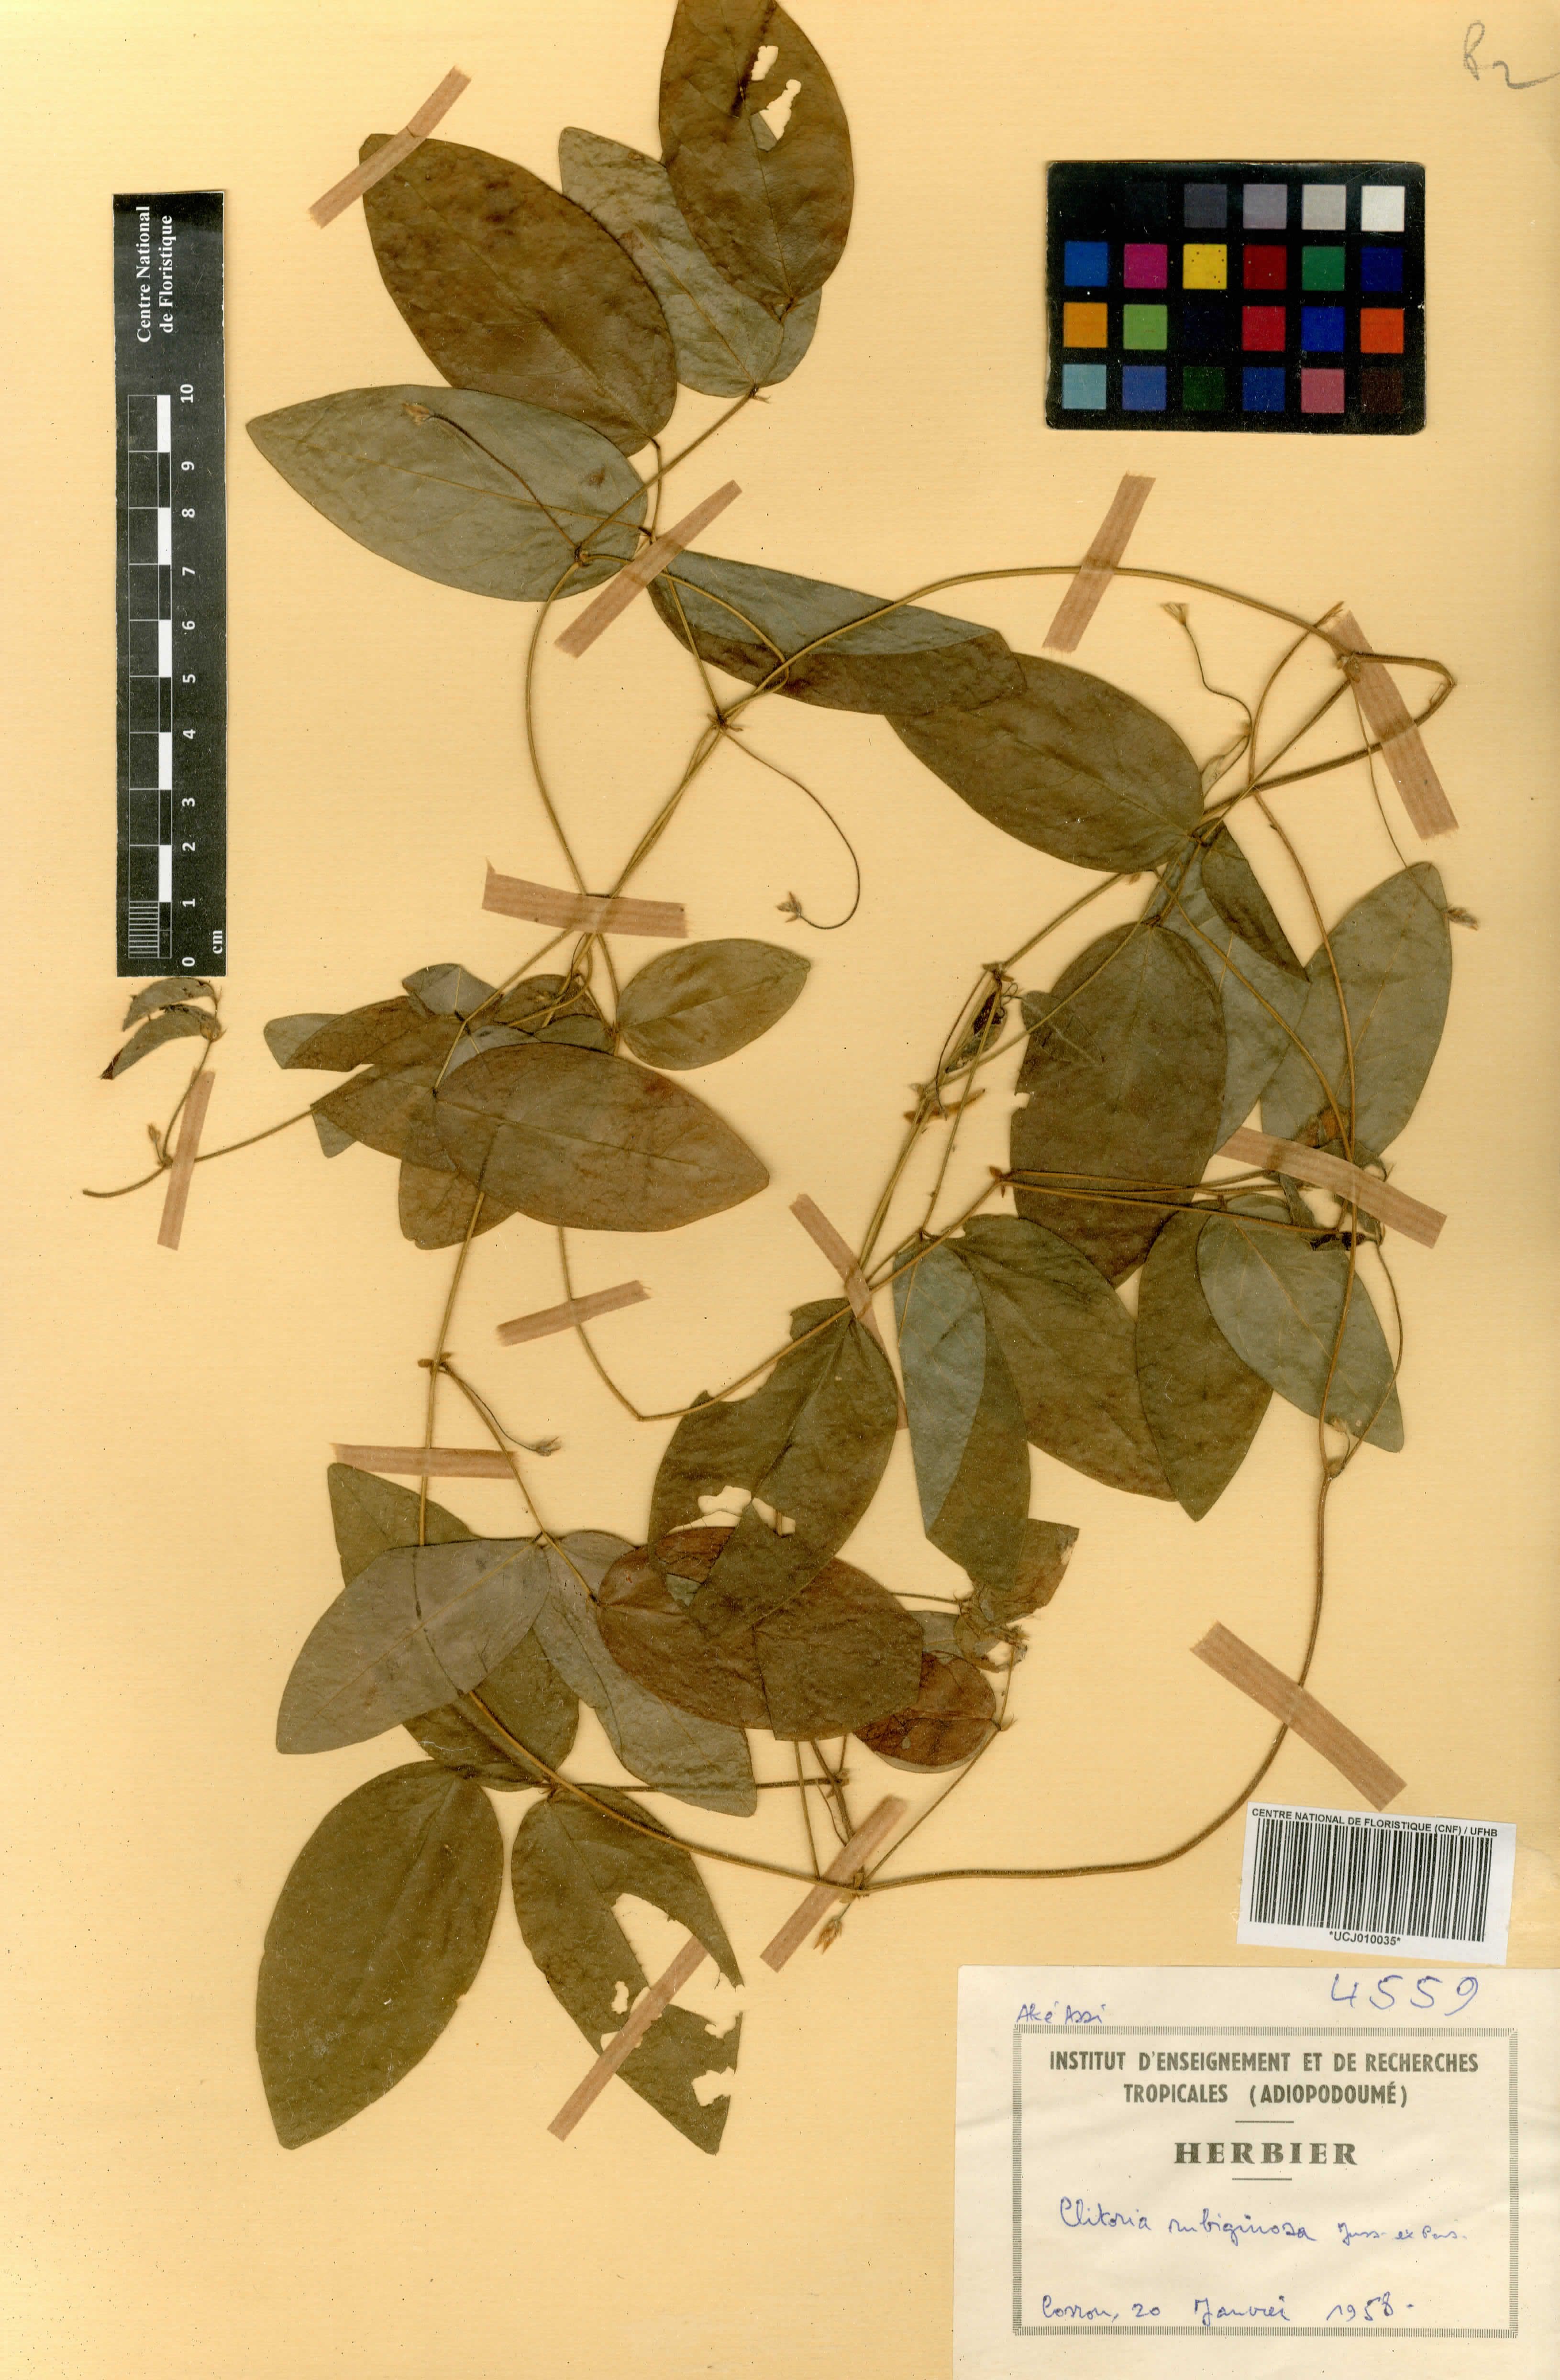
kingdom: Plantae
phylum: Tracheophyta
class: Magnoliopsida
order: Fabales
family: Fabaceae
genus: Clitoria
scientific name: Clitoria falcata
